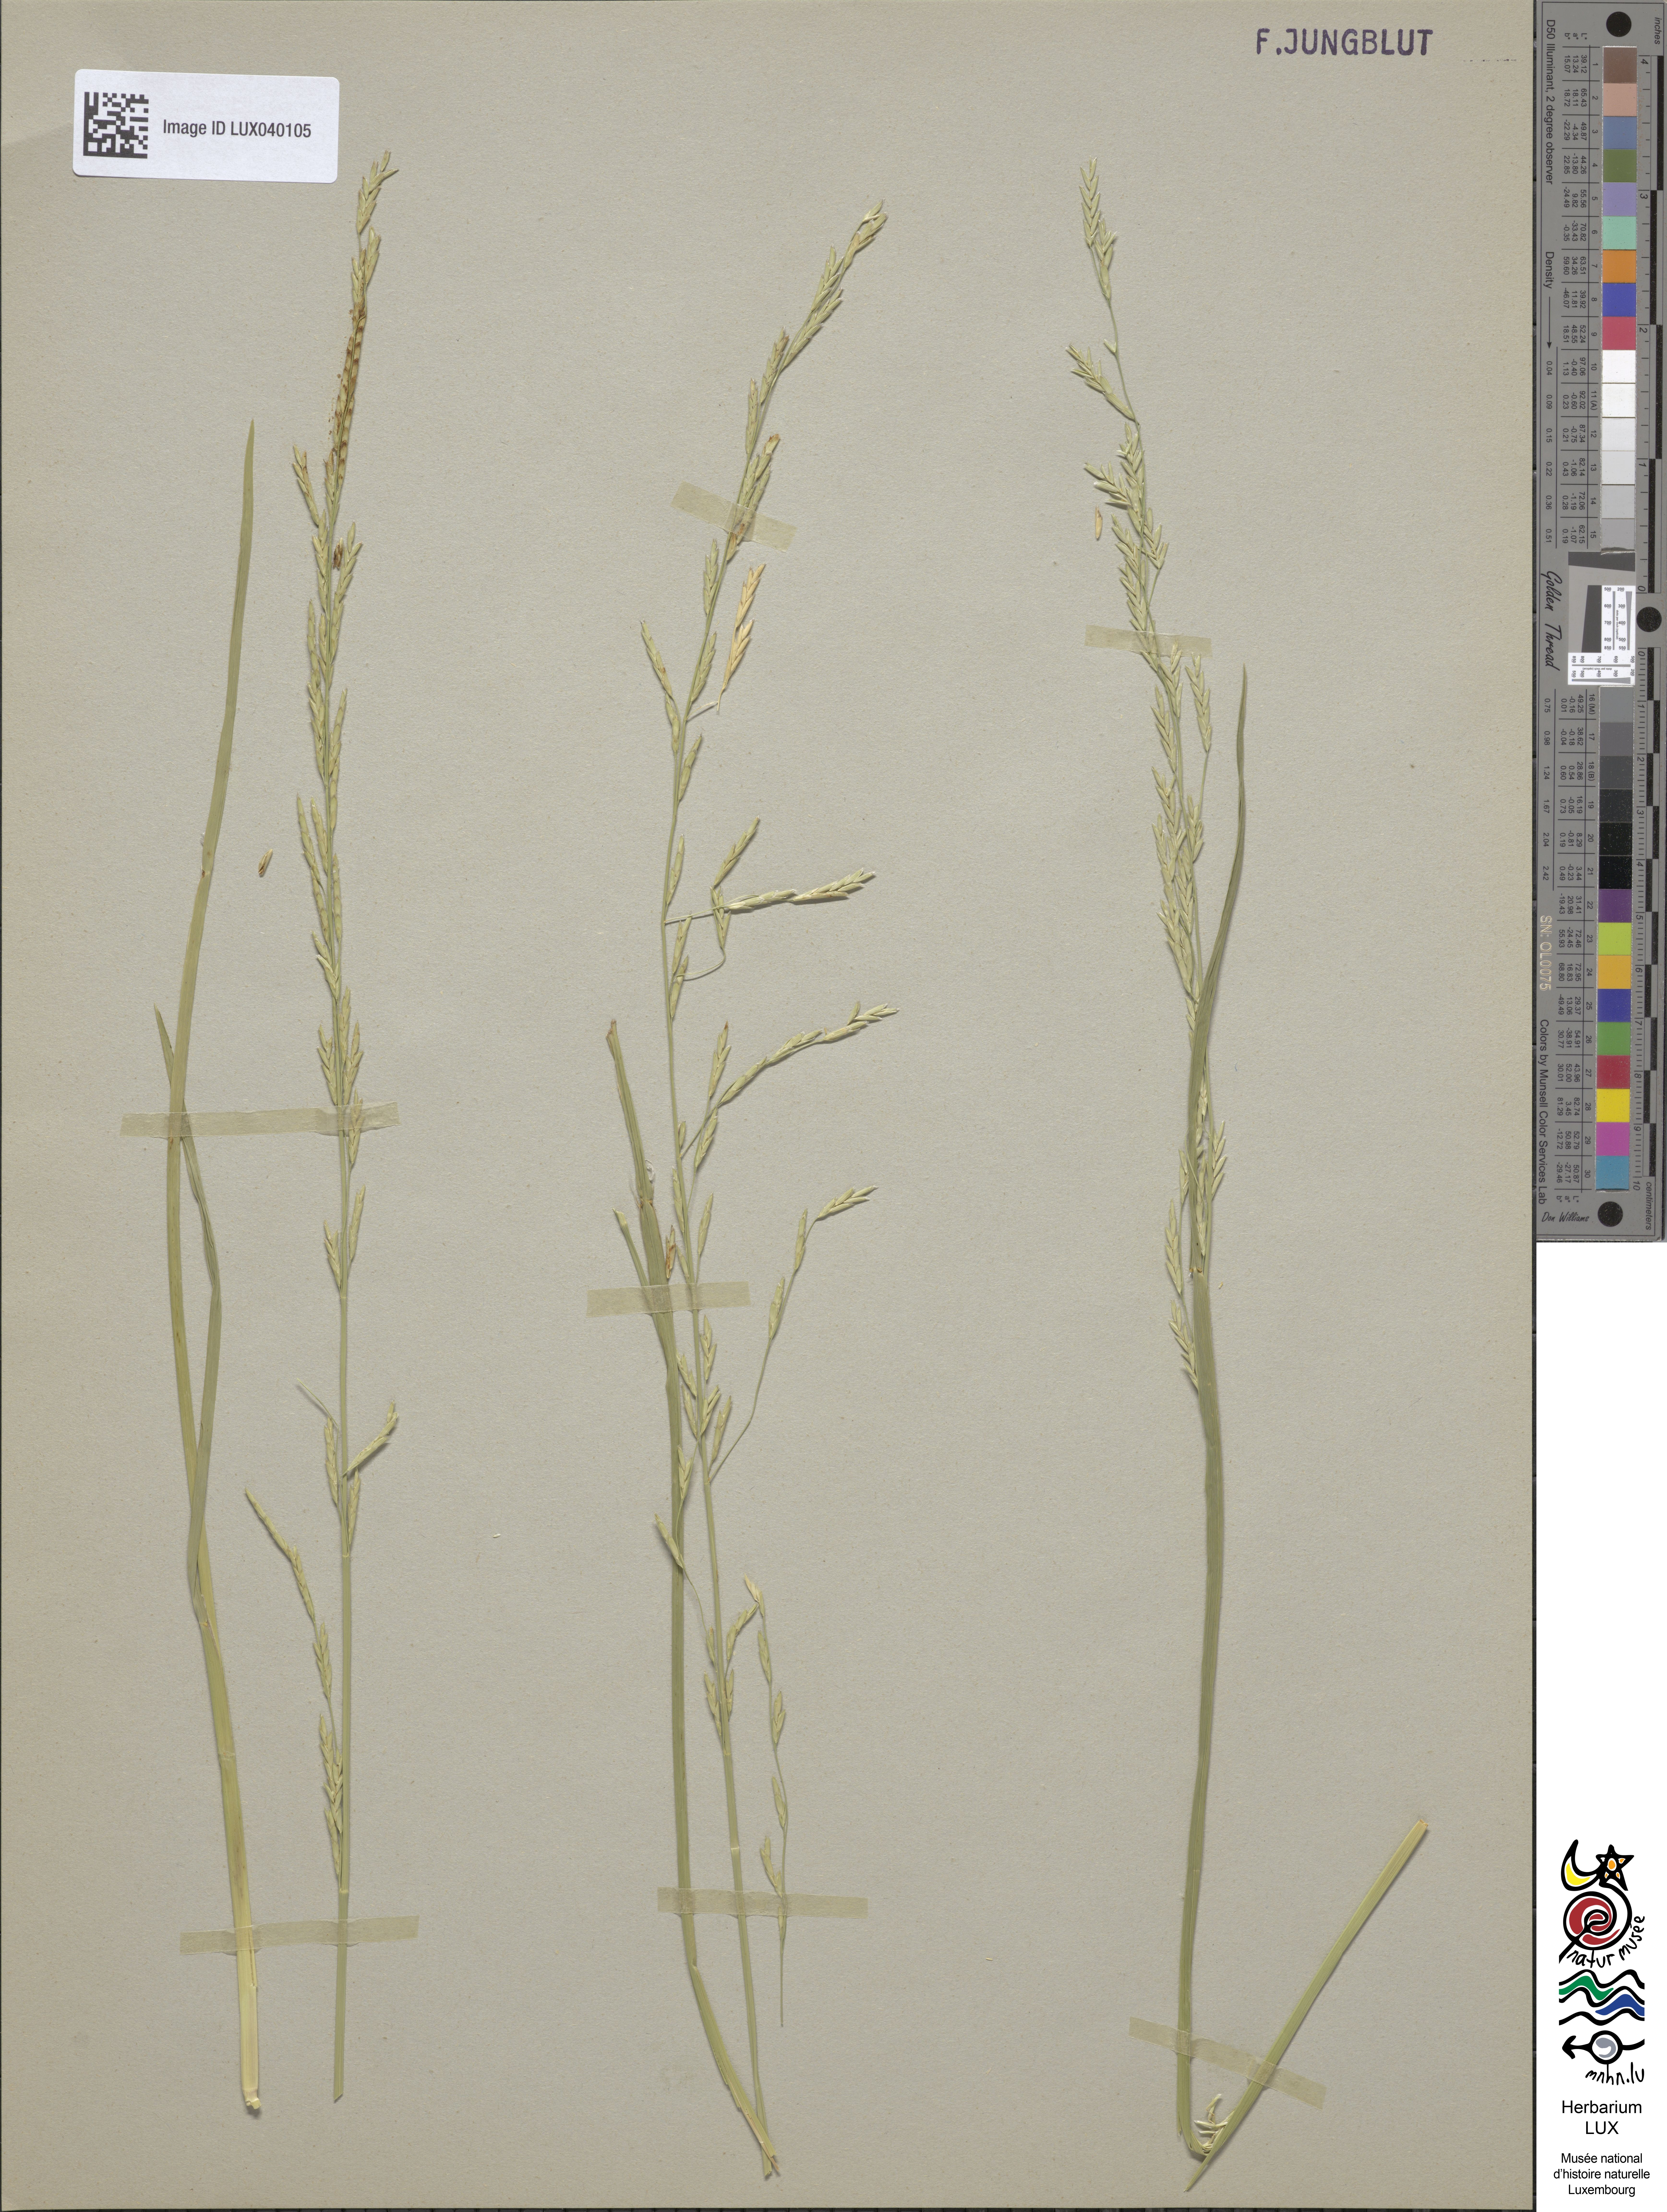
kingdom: Plantae
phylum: Tracheophyta
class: Liliopsida
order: Poales
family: Poaceae
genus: Glyceria
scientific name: Glyceria pedicellata
